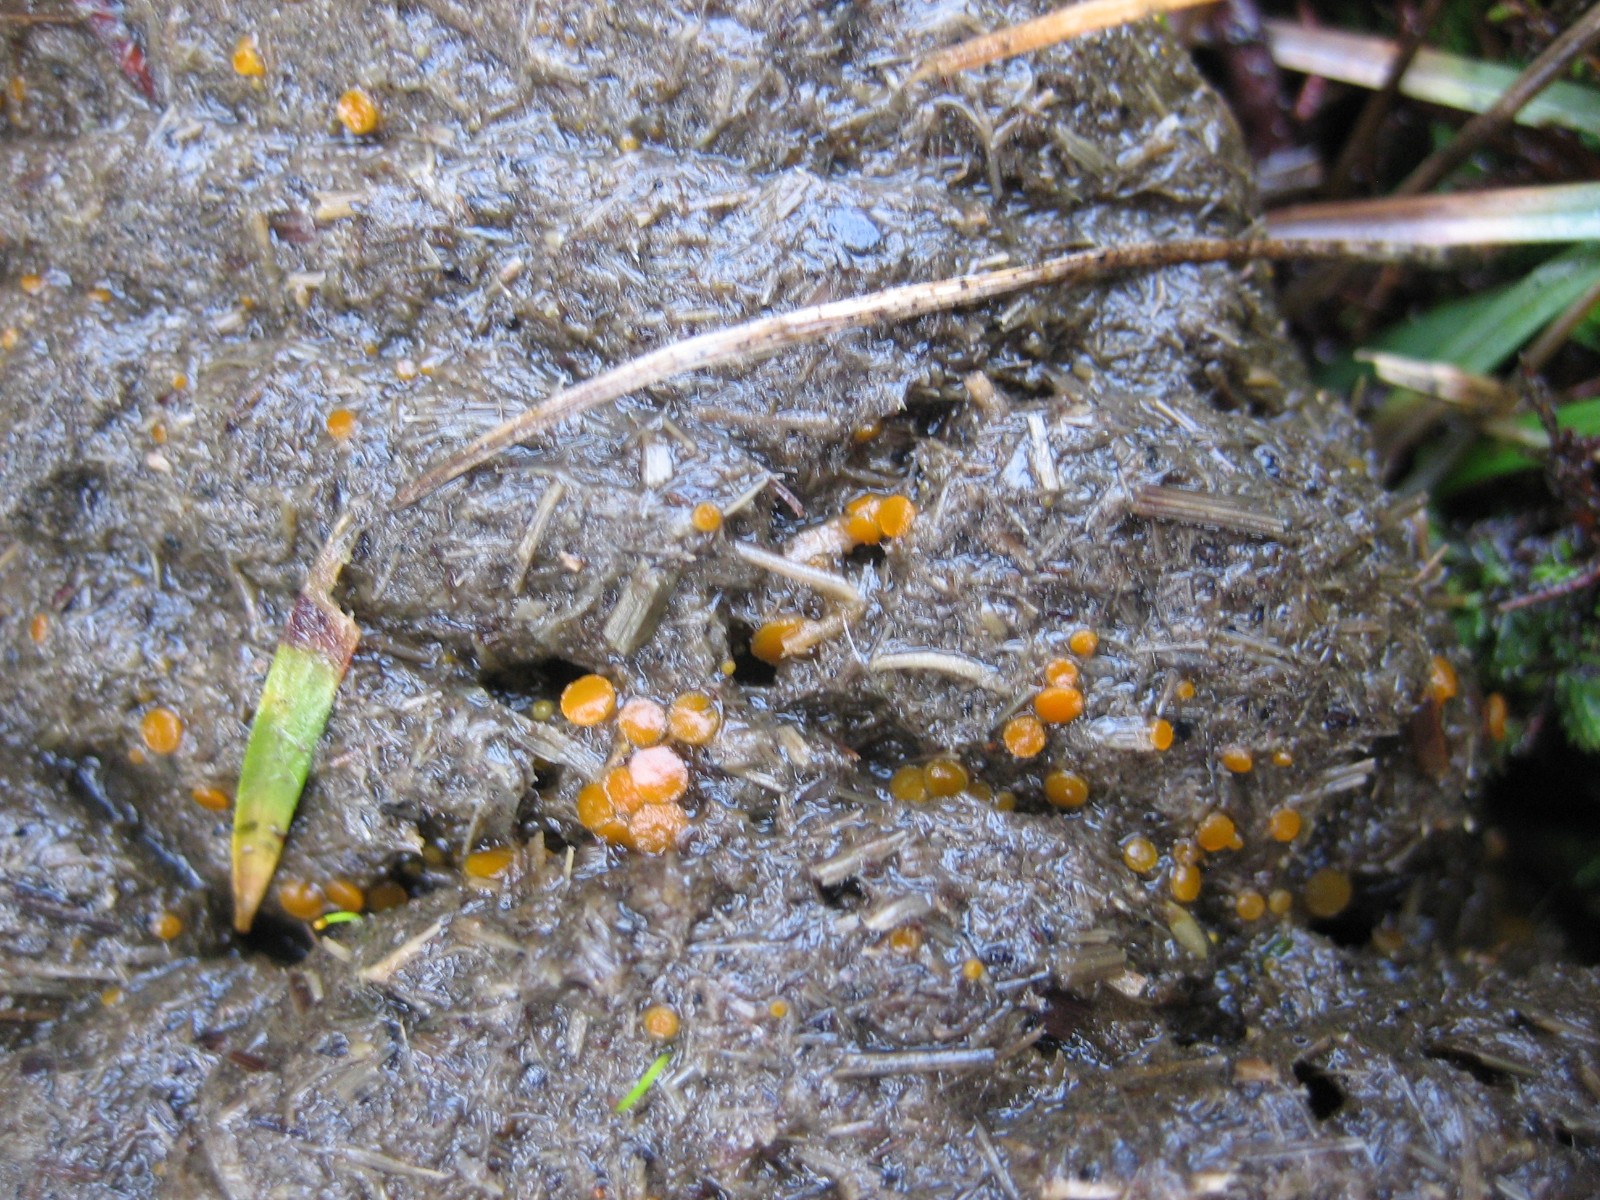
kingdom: Fungi
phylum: Ascomycota
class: Pezizomycetes
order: Pezizales
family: Pyronemataceae
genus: Cheilymenia
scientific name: Cheilymenia
